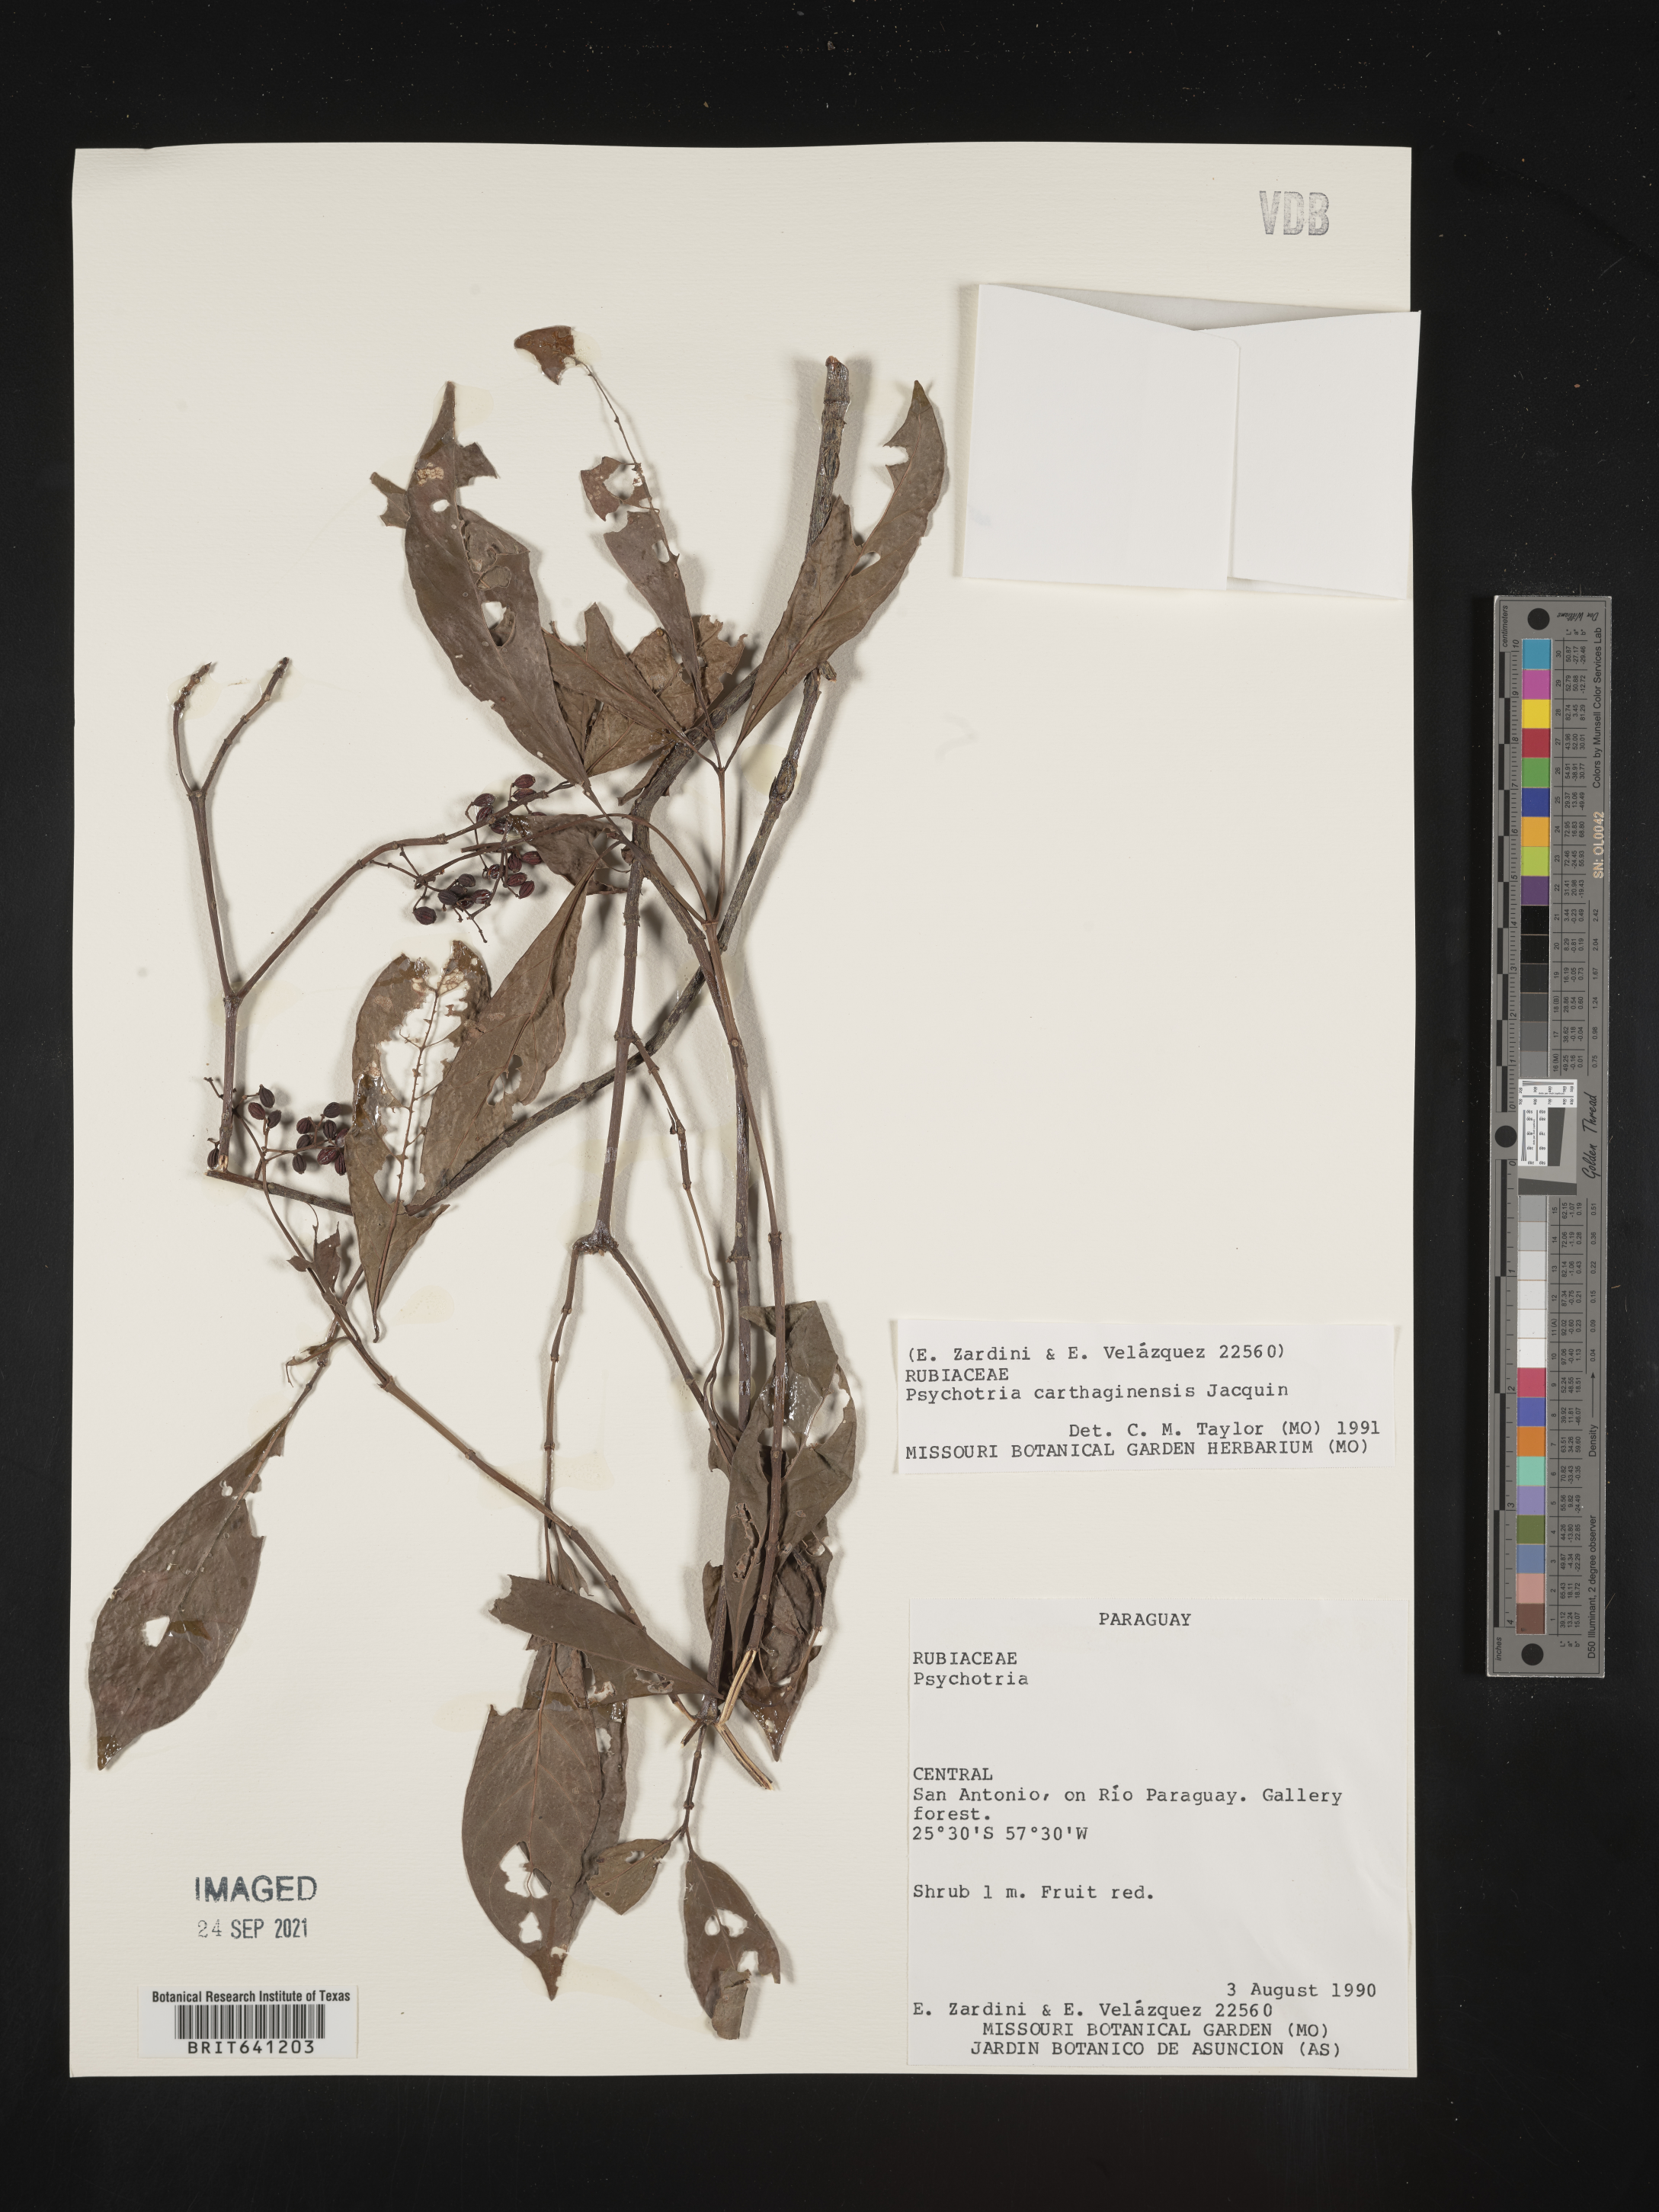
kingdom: Plantae
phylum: Tracheophyta
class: Magnoliopsida
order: Gentianales
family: Rubiaceae
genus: Psychotria
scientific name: Psychotria
